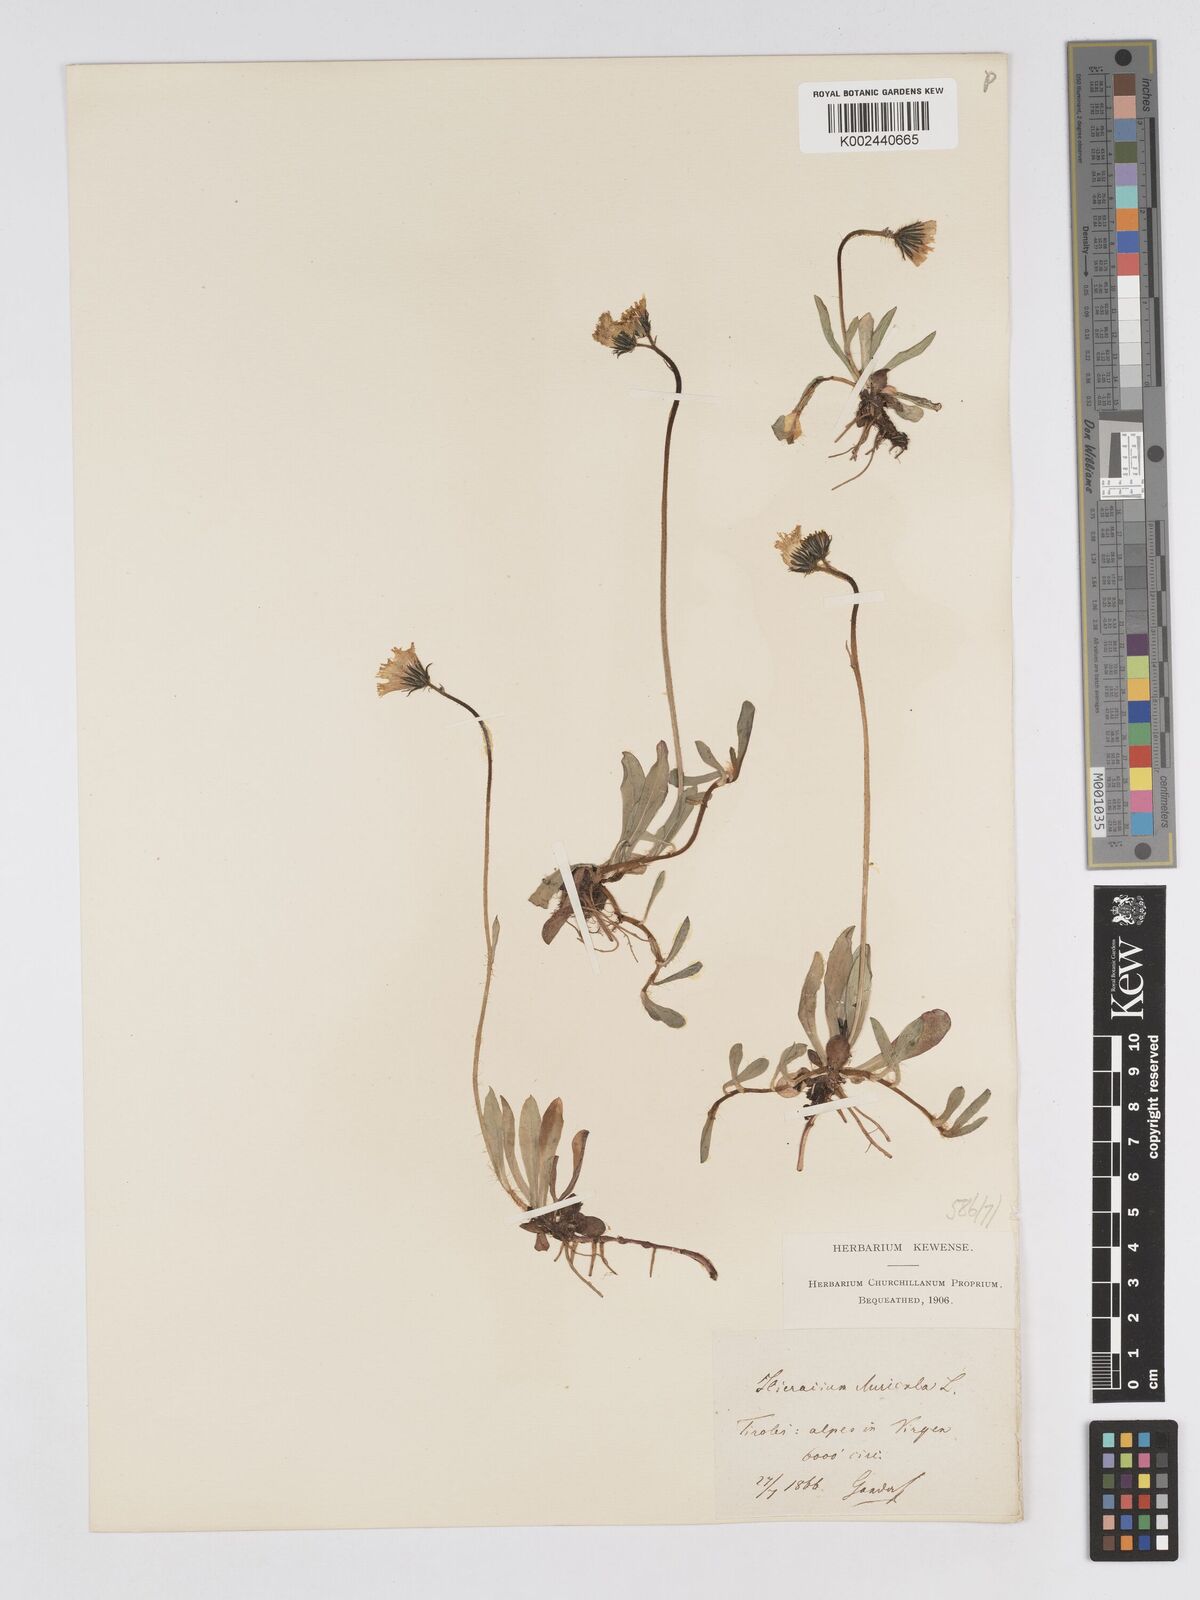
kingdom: Plantae
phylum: Tracheophyta
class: Magnoliopsida
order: Asterales
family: Asteraceae
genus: Pilosella
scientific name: Pilosella floribunda
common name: Glaucous hawkweed
